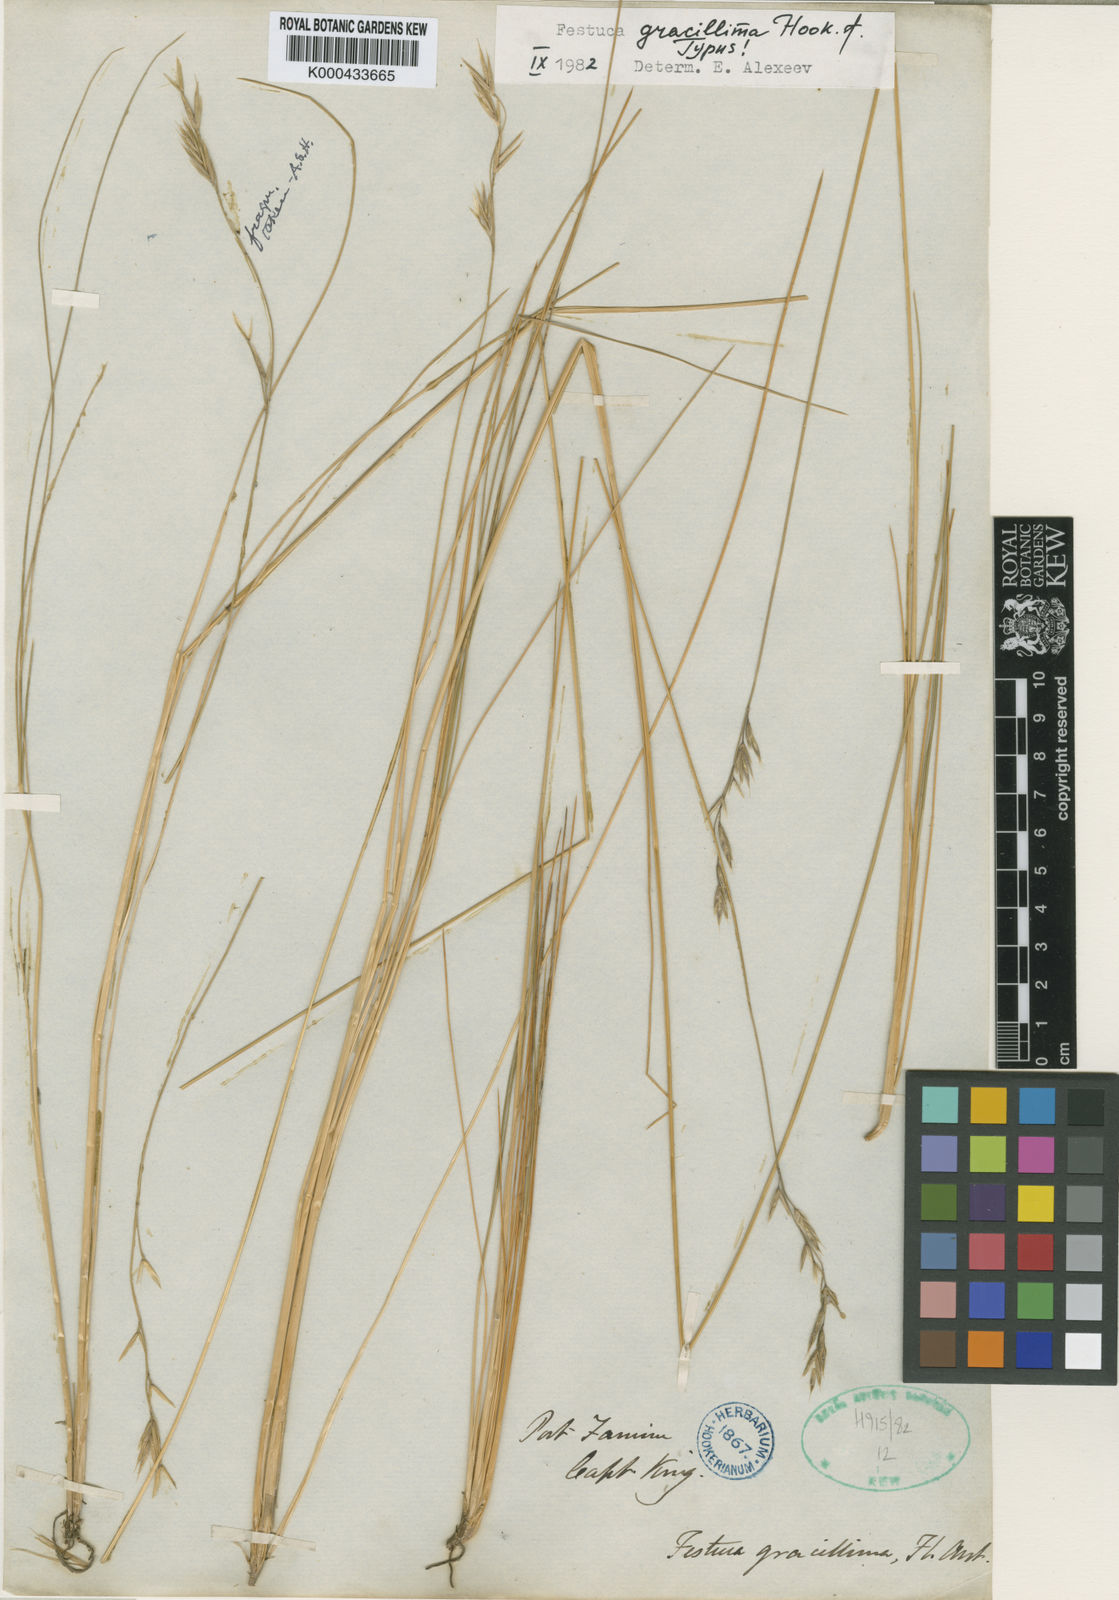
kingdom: Plantae
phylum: Tracheophyta
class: Liliopsida
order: Poales
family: Poaceae
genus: Festuca
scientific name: Festuca gracillima
